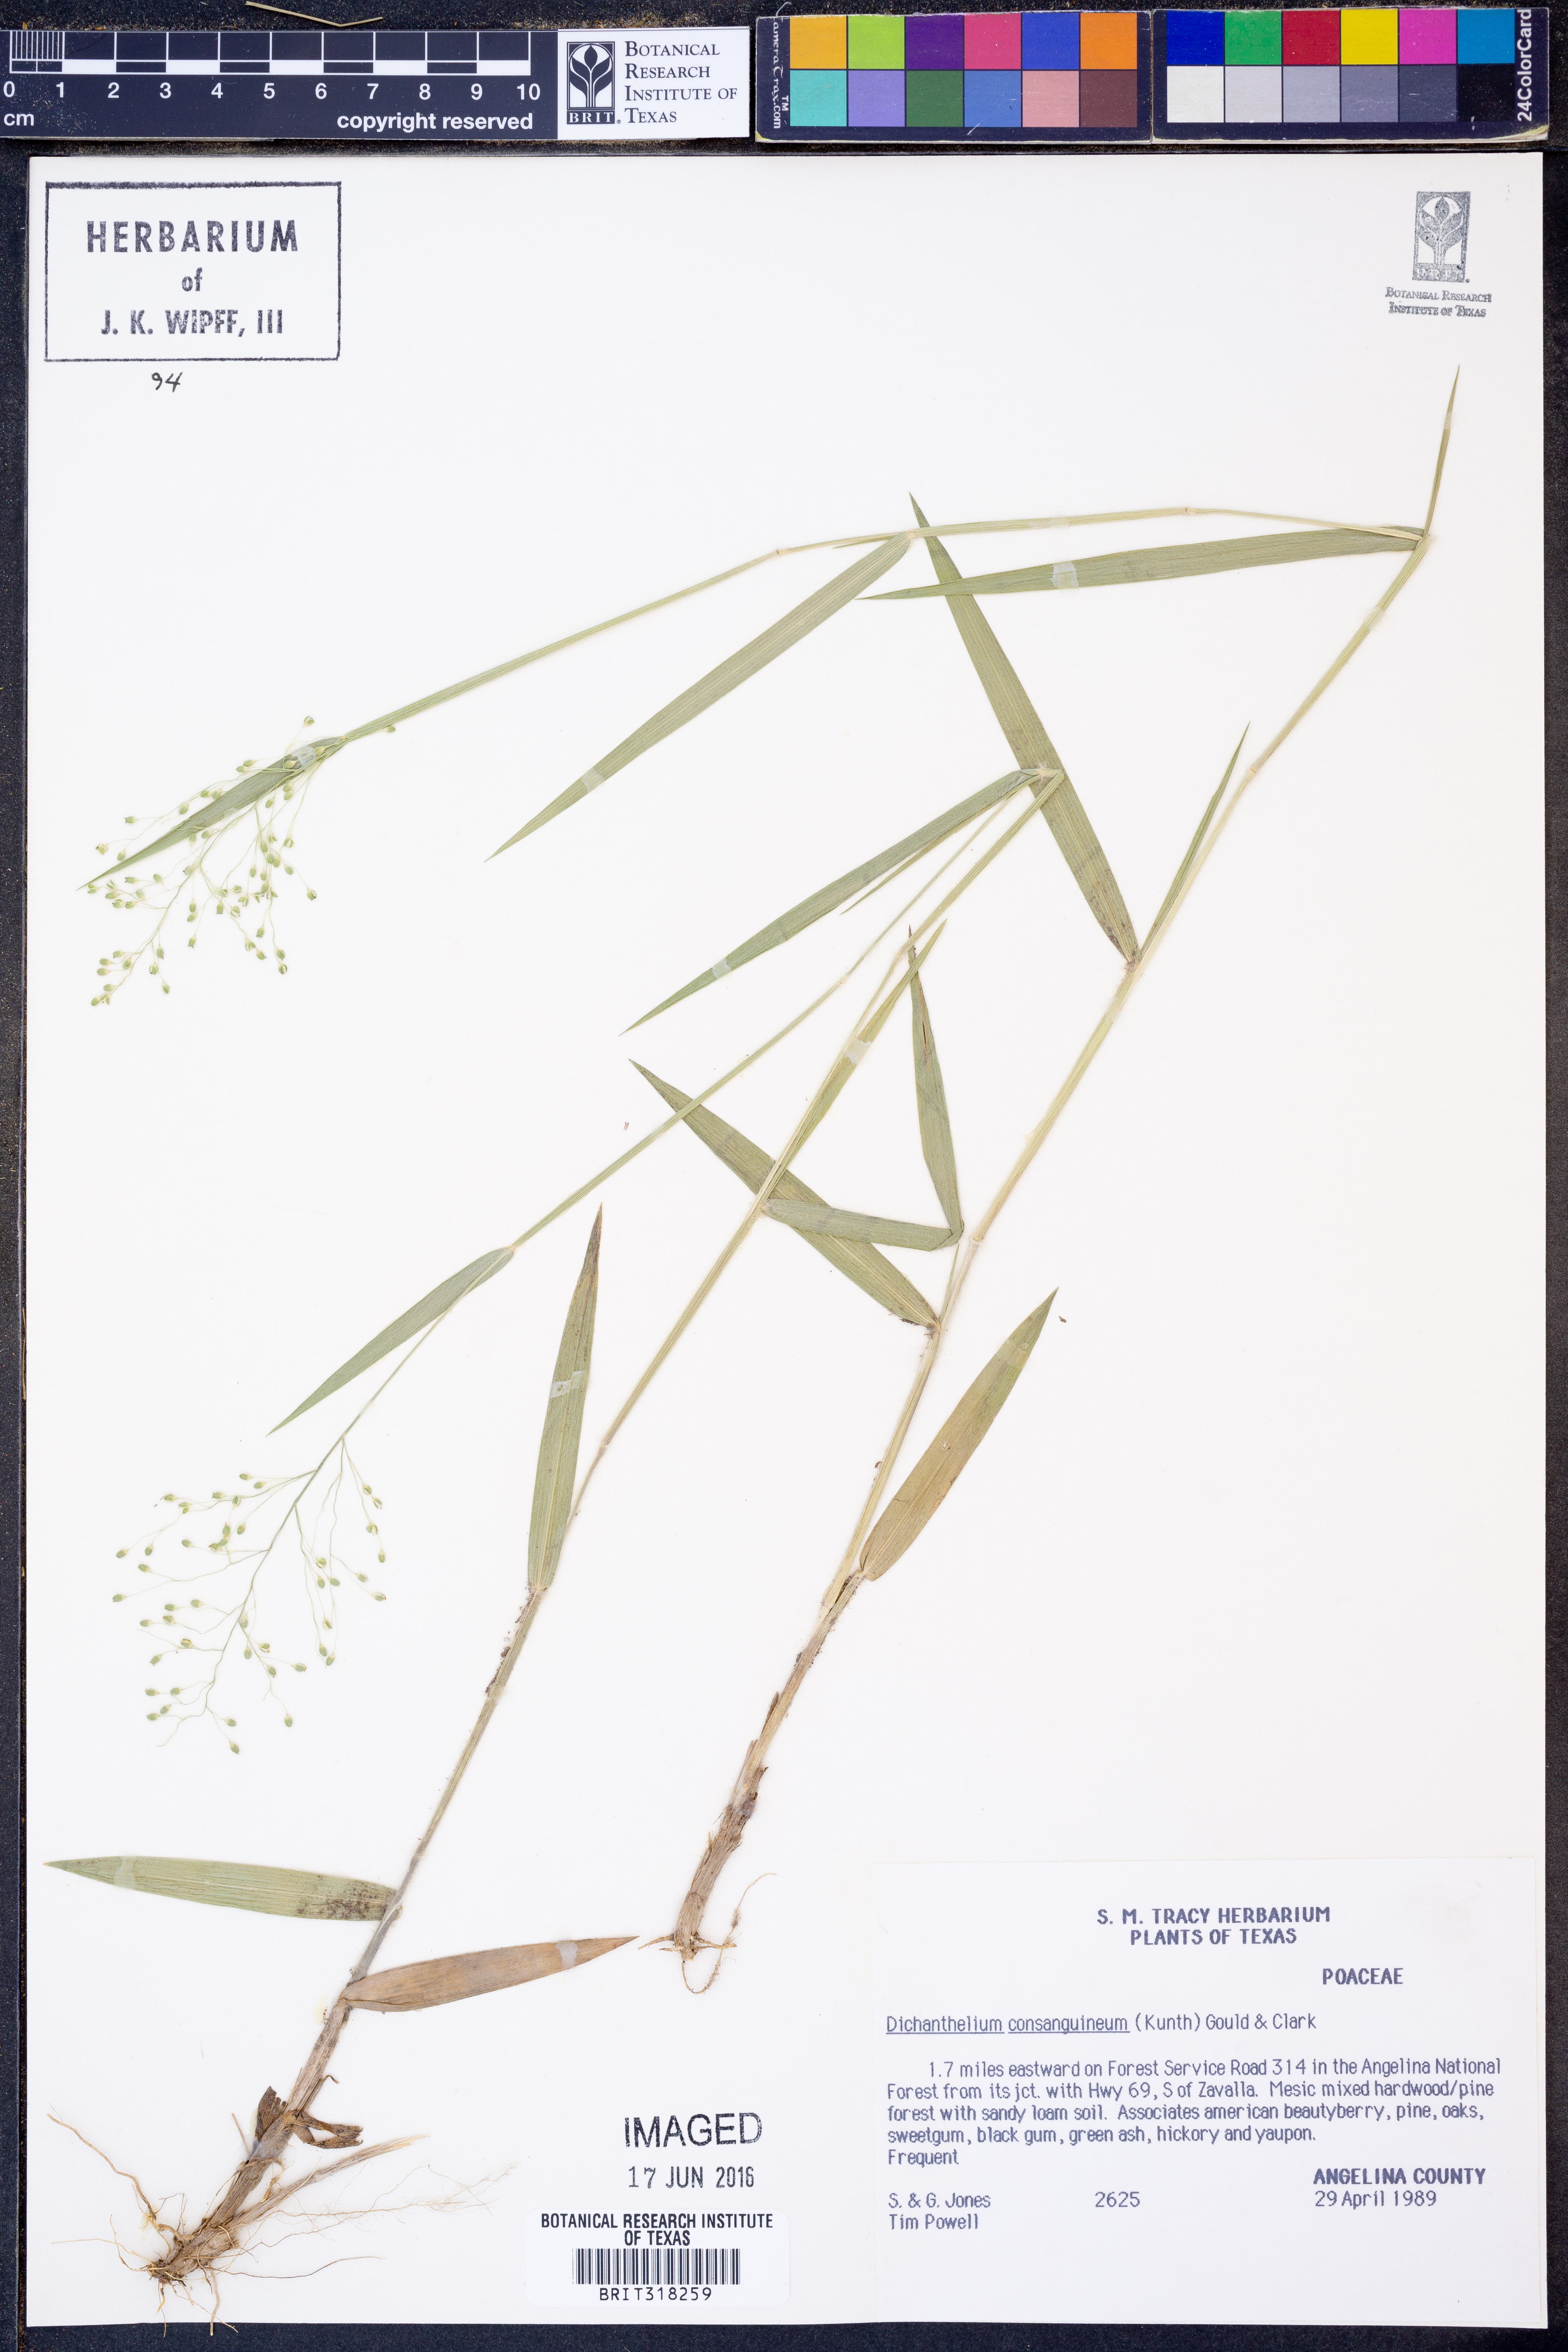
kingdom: Plantae
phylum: Tracheophyta
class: Liliopsida
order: Poales
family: Poaceae
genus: Dichanthelium
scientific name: Dichanthelium consanguineum
